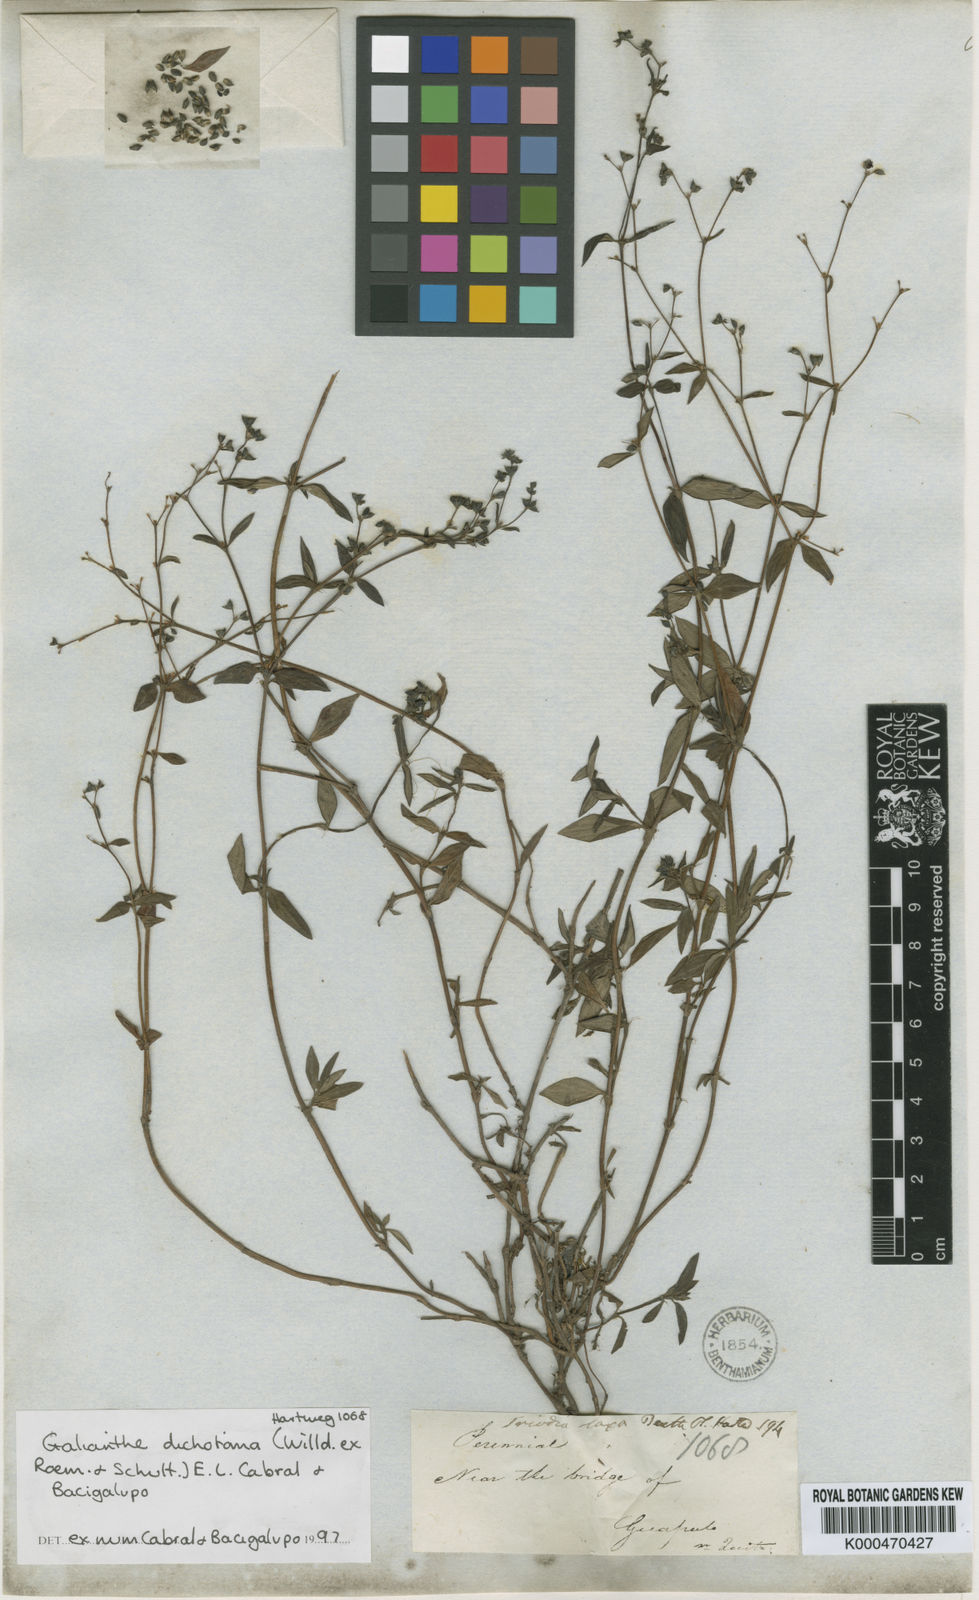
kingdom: Plantae
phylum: Tracheophyta
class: Magnoliopsida
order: Gentianales
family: Rubiaceae
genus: Galianthe
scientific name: Galianthe dichotoma
